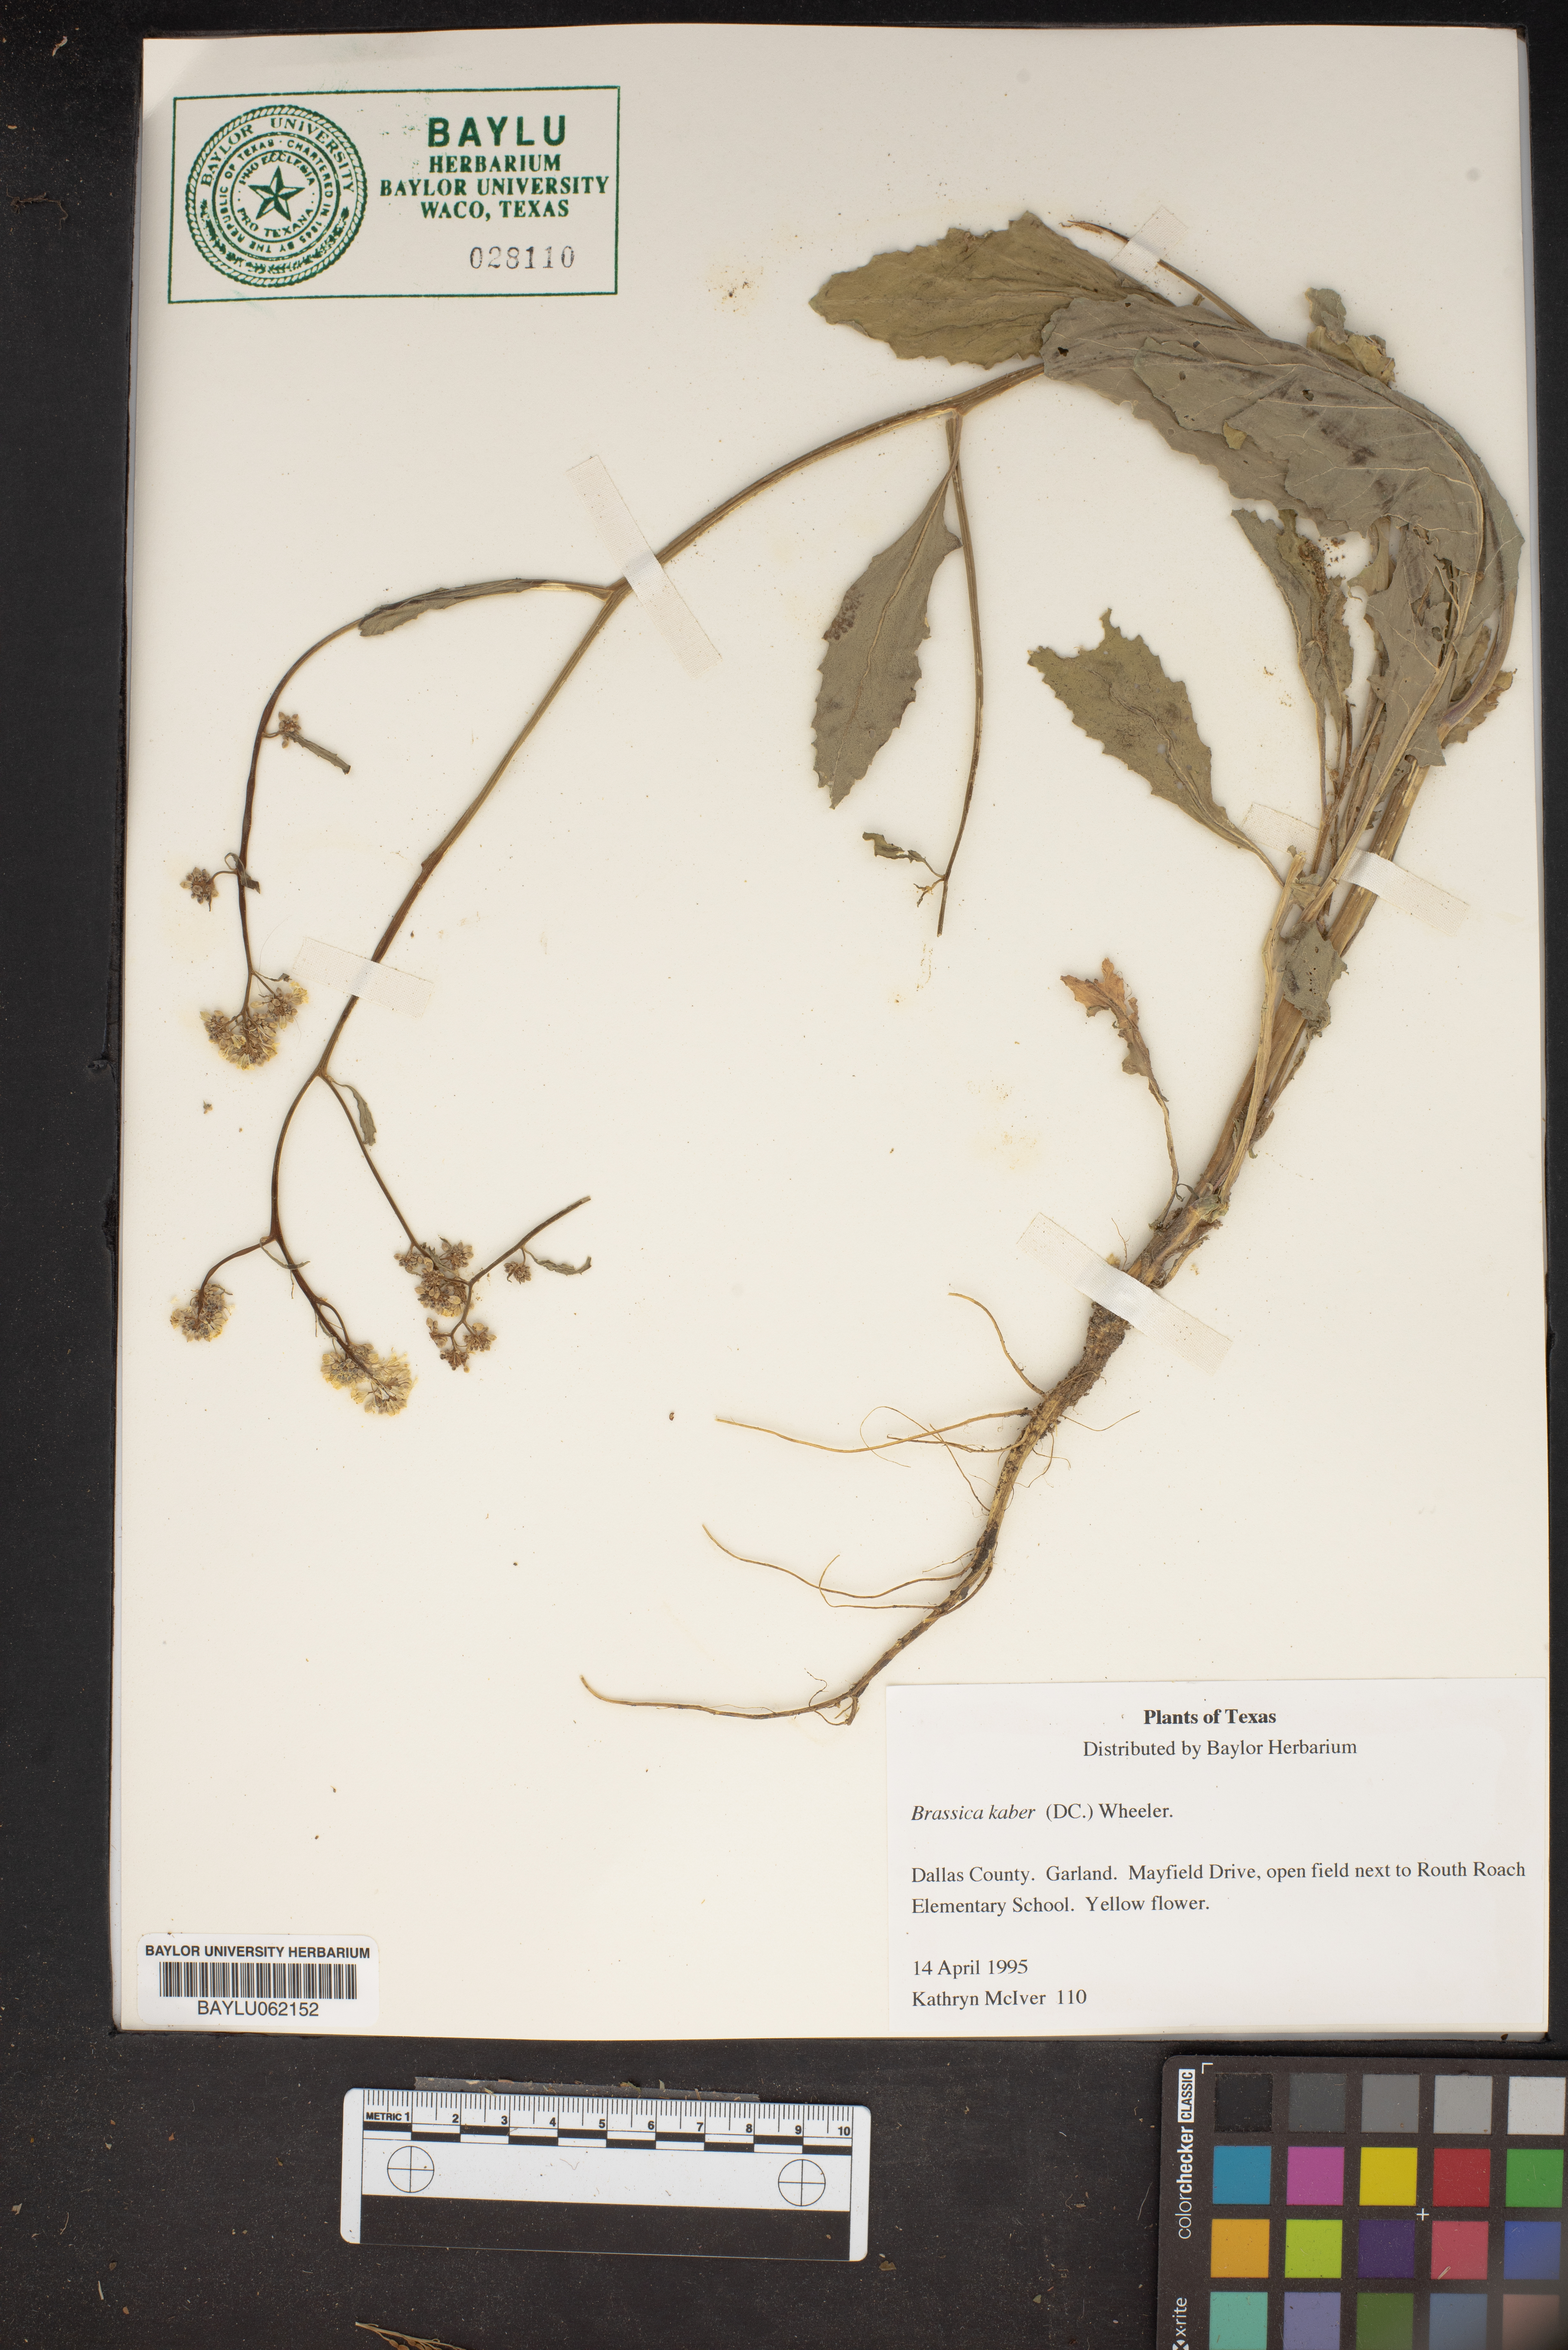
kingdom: Plantae
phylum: Tracheophyta
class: Magnoliopsida
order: Brassicales
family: Brassicaceae
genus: Sinapis
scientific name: Sinapis arvensis
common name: Charlock
